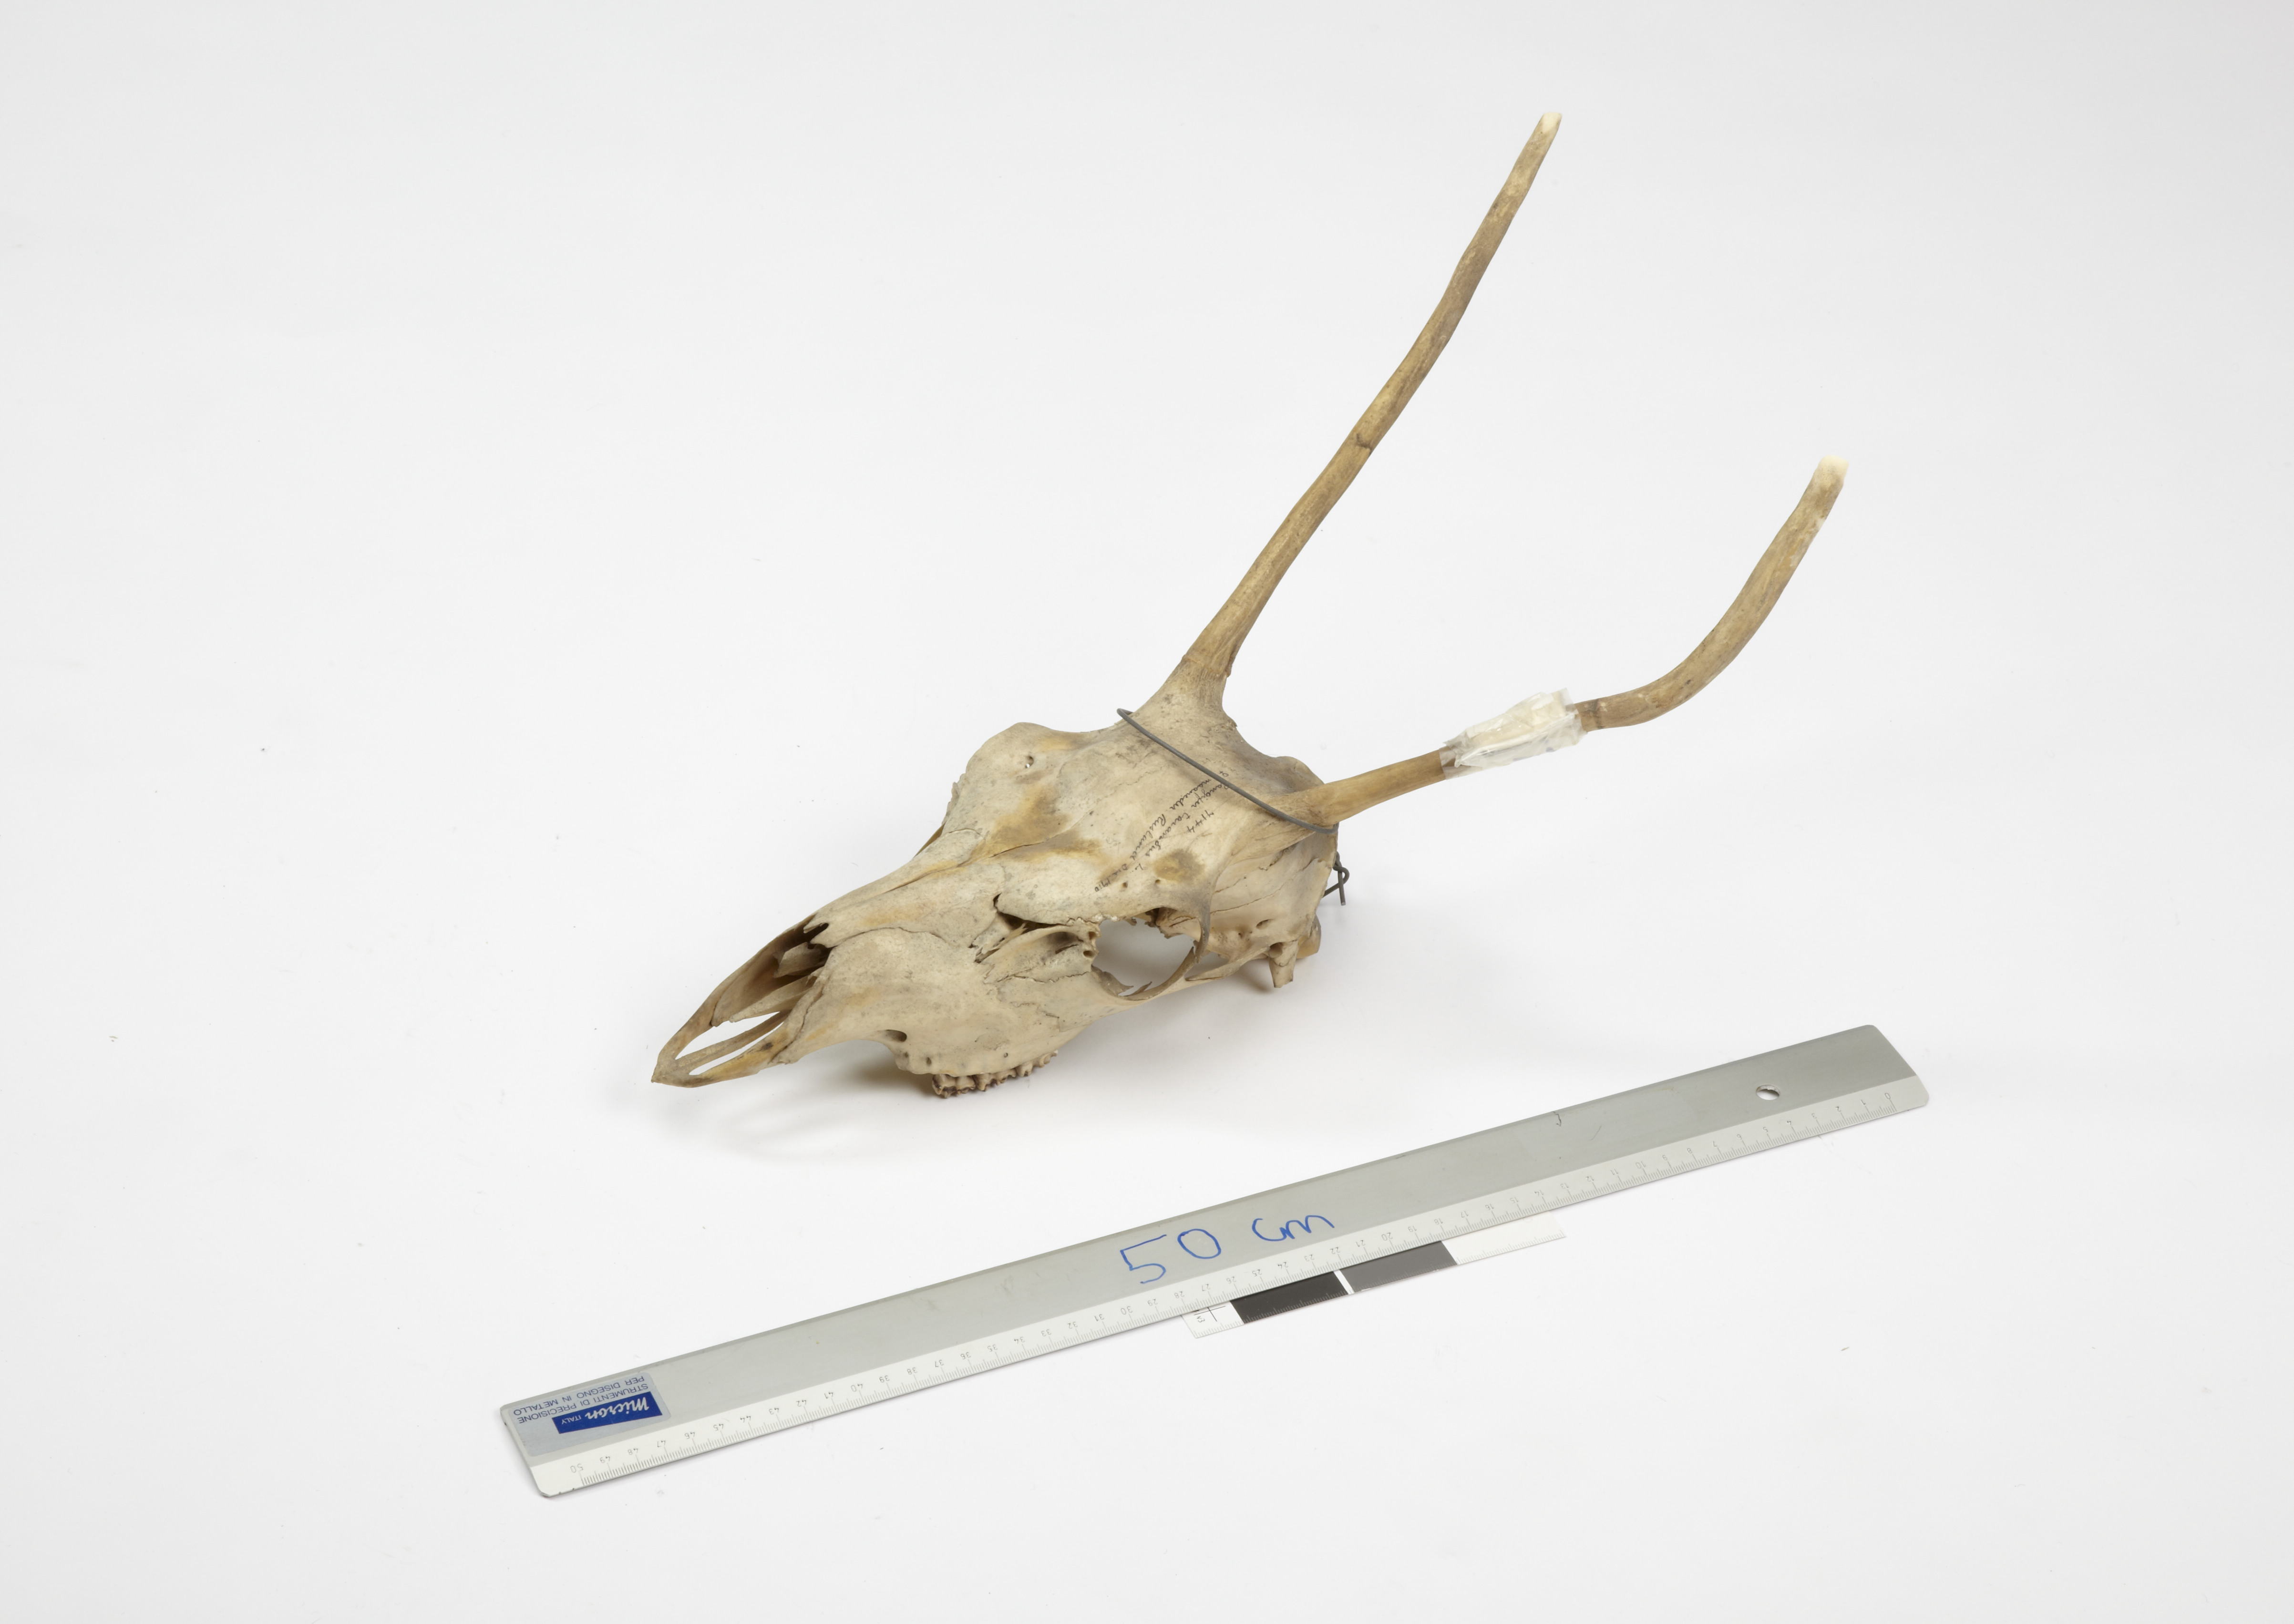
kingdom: Animalia
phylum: Chordata
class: Mammalia
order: Artiodactyla
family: Cervidae
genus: Rangifer
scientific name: Rangifer tarandus
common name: Reindeer
